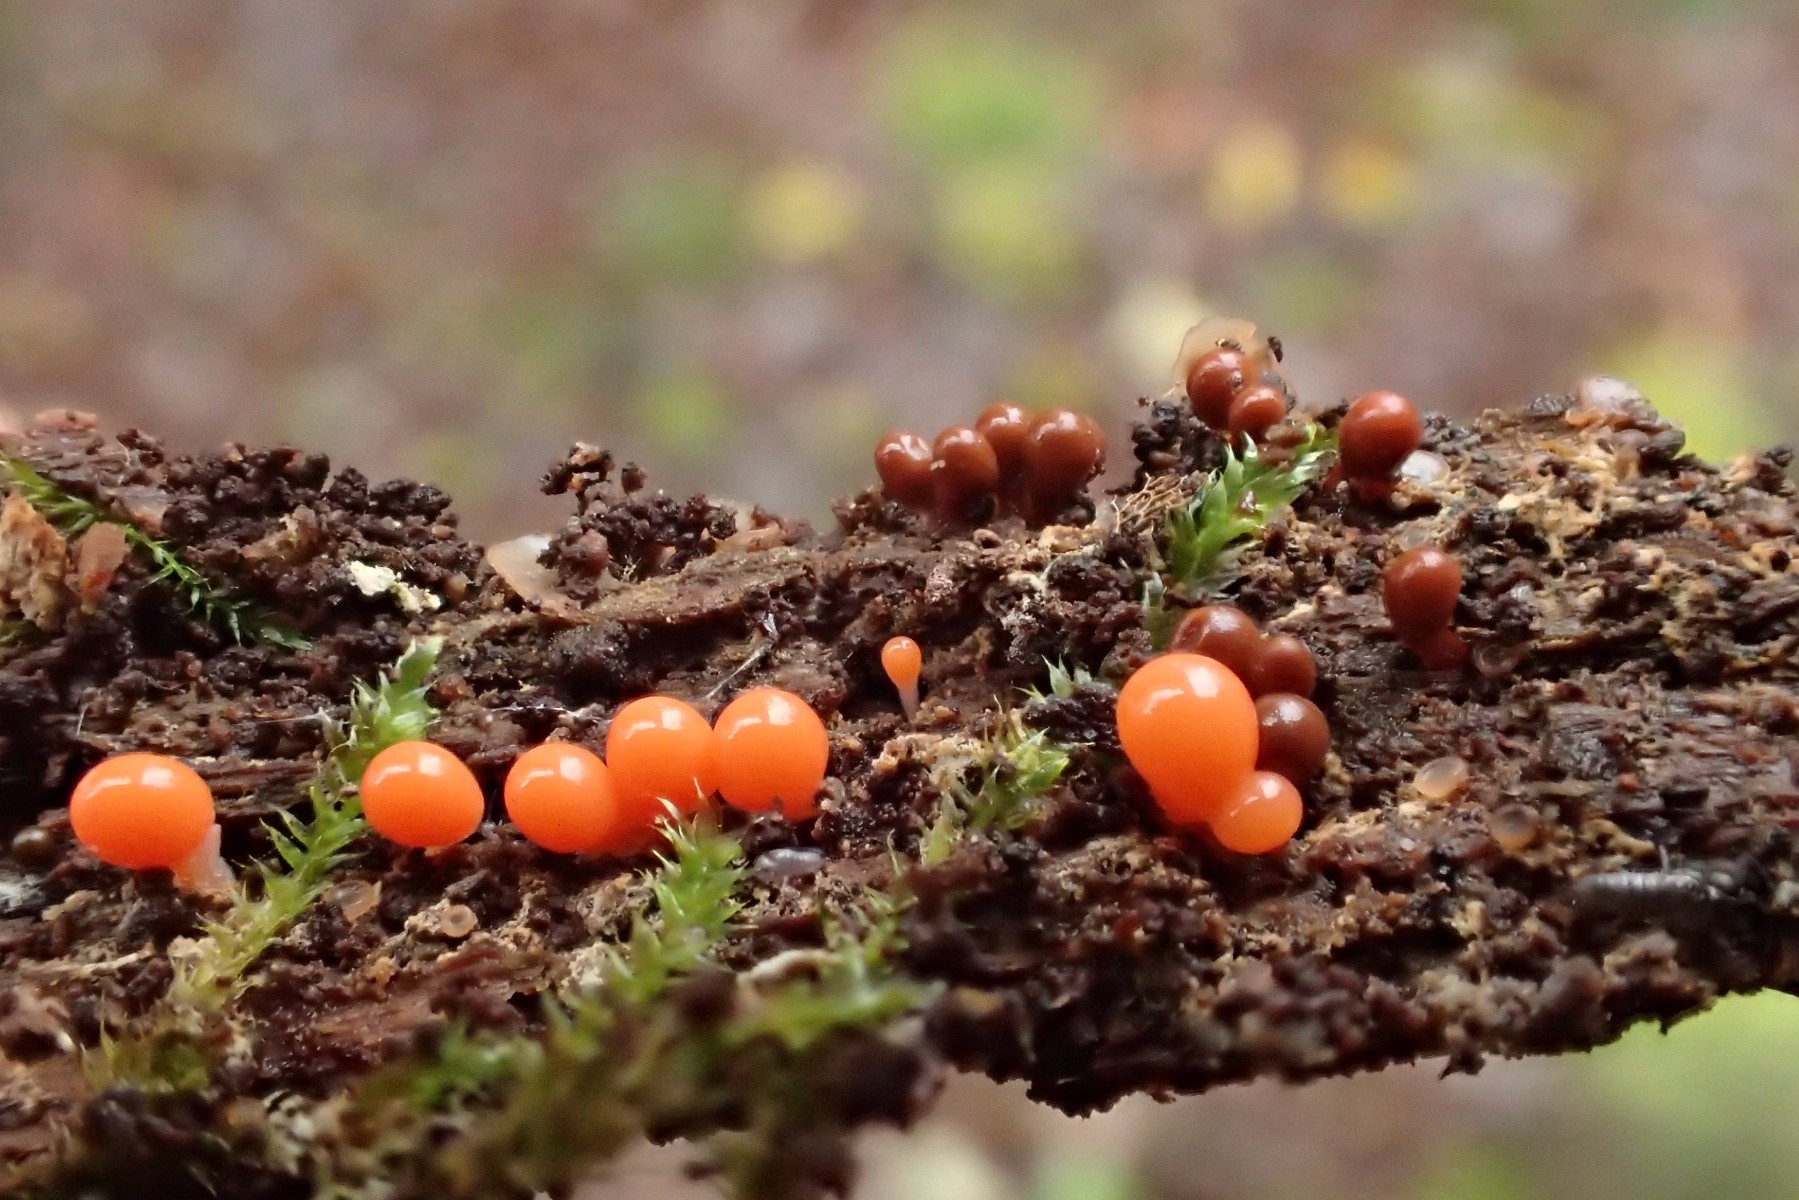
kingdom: Protozoa
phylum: Mycetozoa
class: Myxomycetes
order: Trichiales
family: Trichiaceae
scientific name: Trichiaceae
